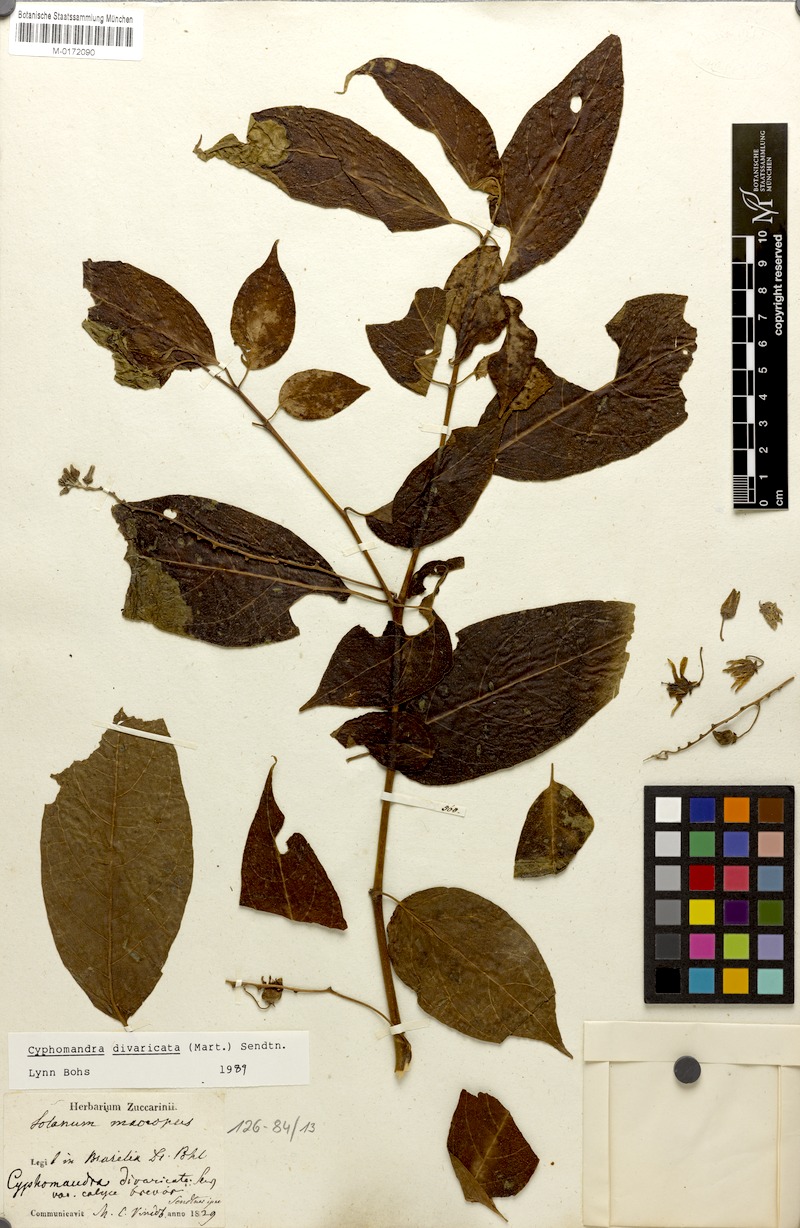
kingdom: Plantae
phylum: Tracheophyta
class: Magnoliopsida
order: Solanales
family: Solanaceae
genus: Solanum
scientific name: Solanum melissarum
